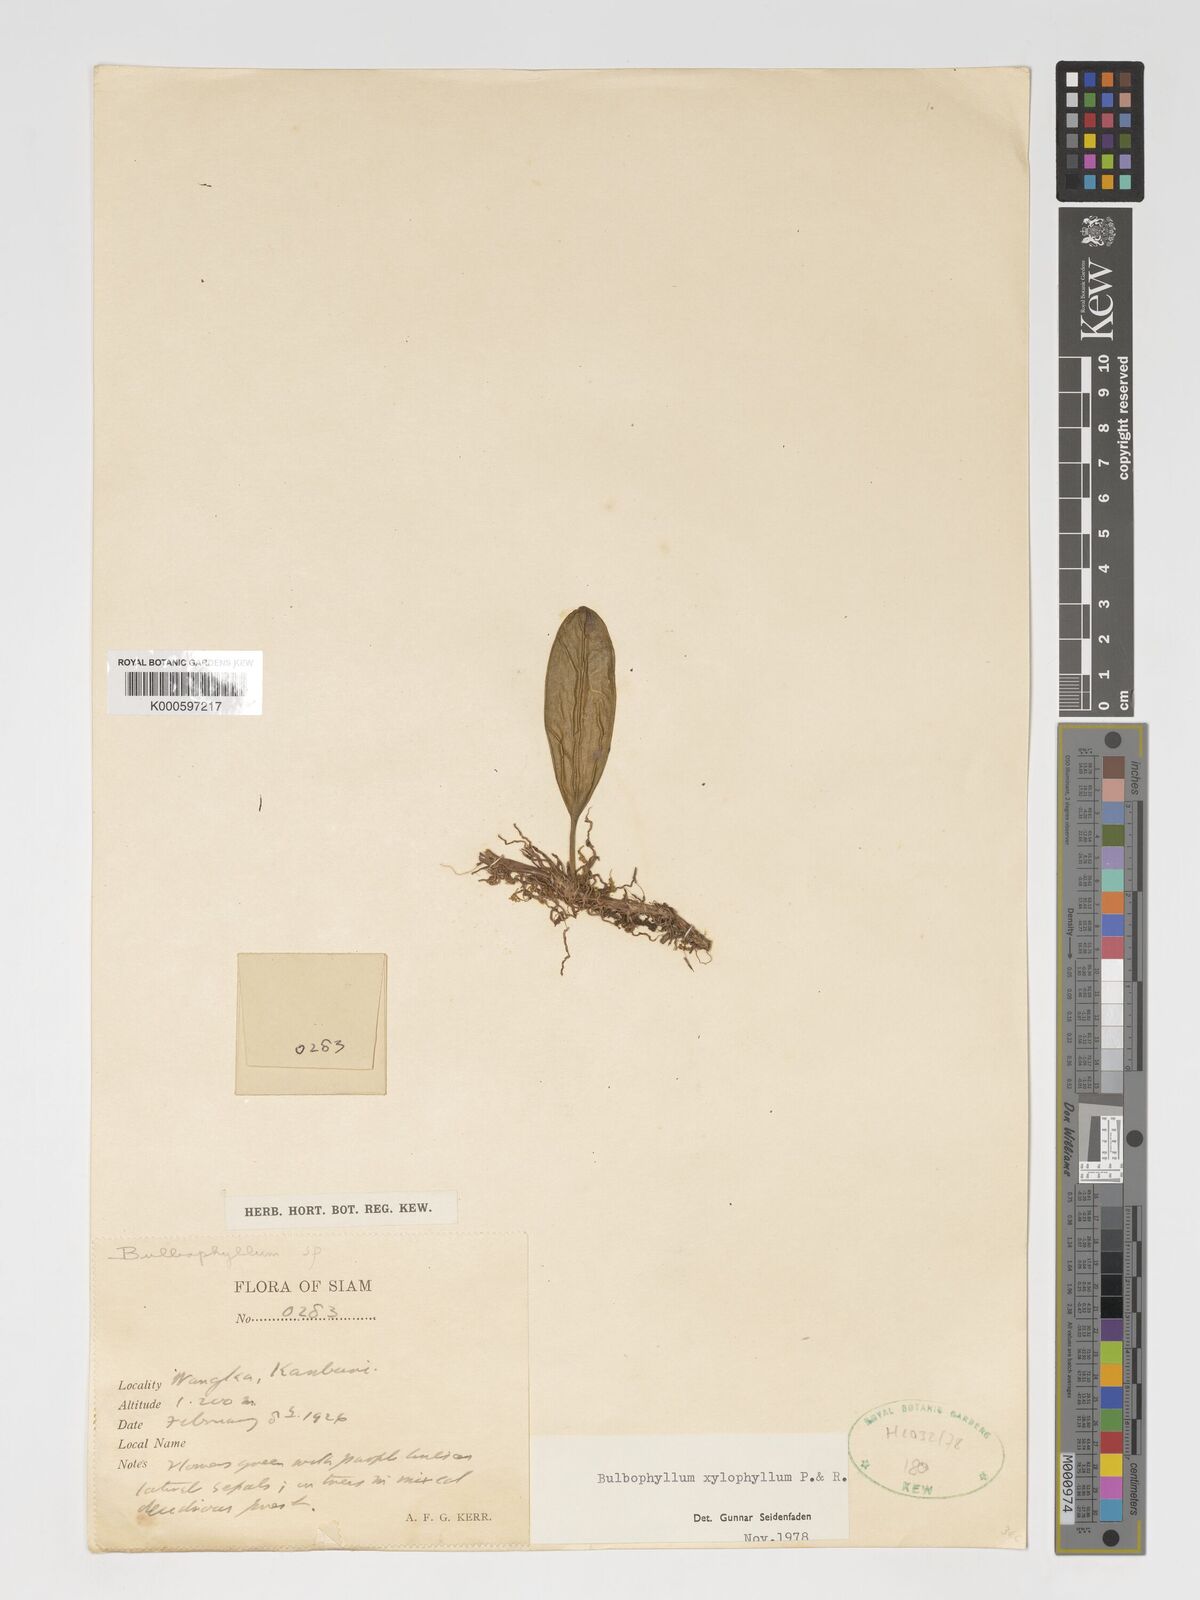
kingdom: Plantae
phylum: Tracheophyta
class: Liliopsida
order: Asparagales
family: Orchidaceae
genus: Bulbophyllum
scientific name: Bulbophyllum xylophyllum
